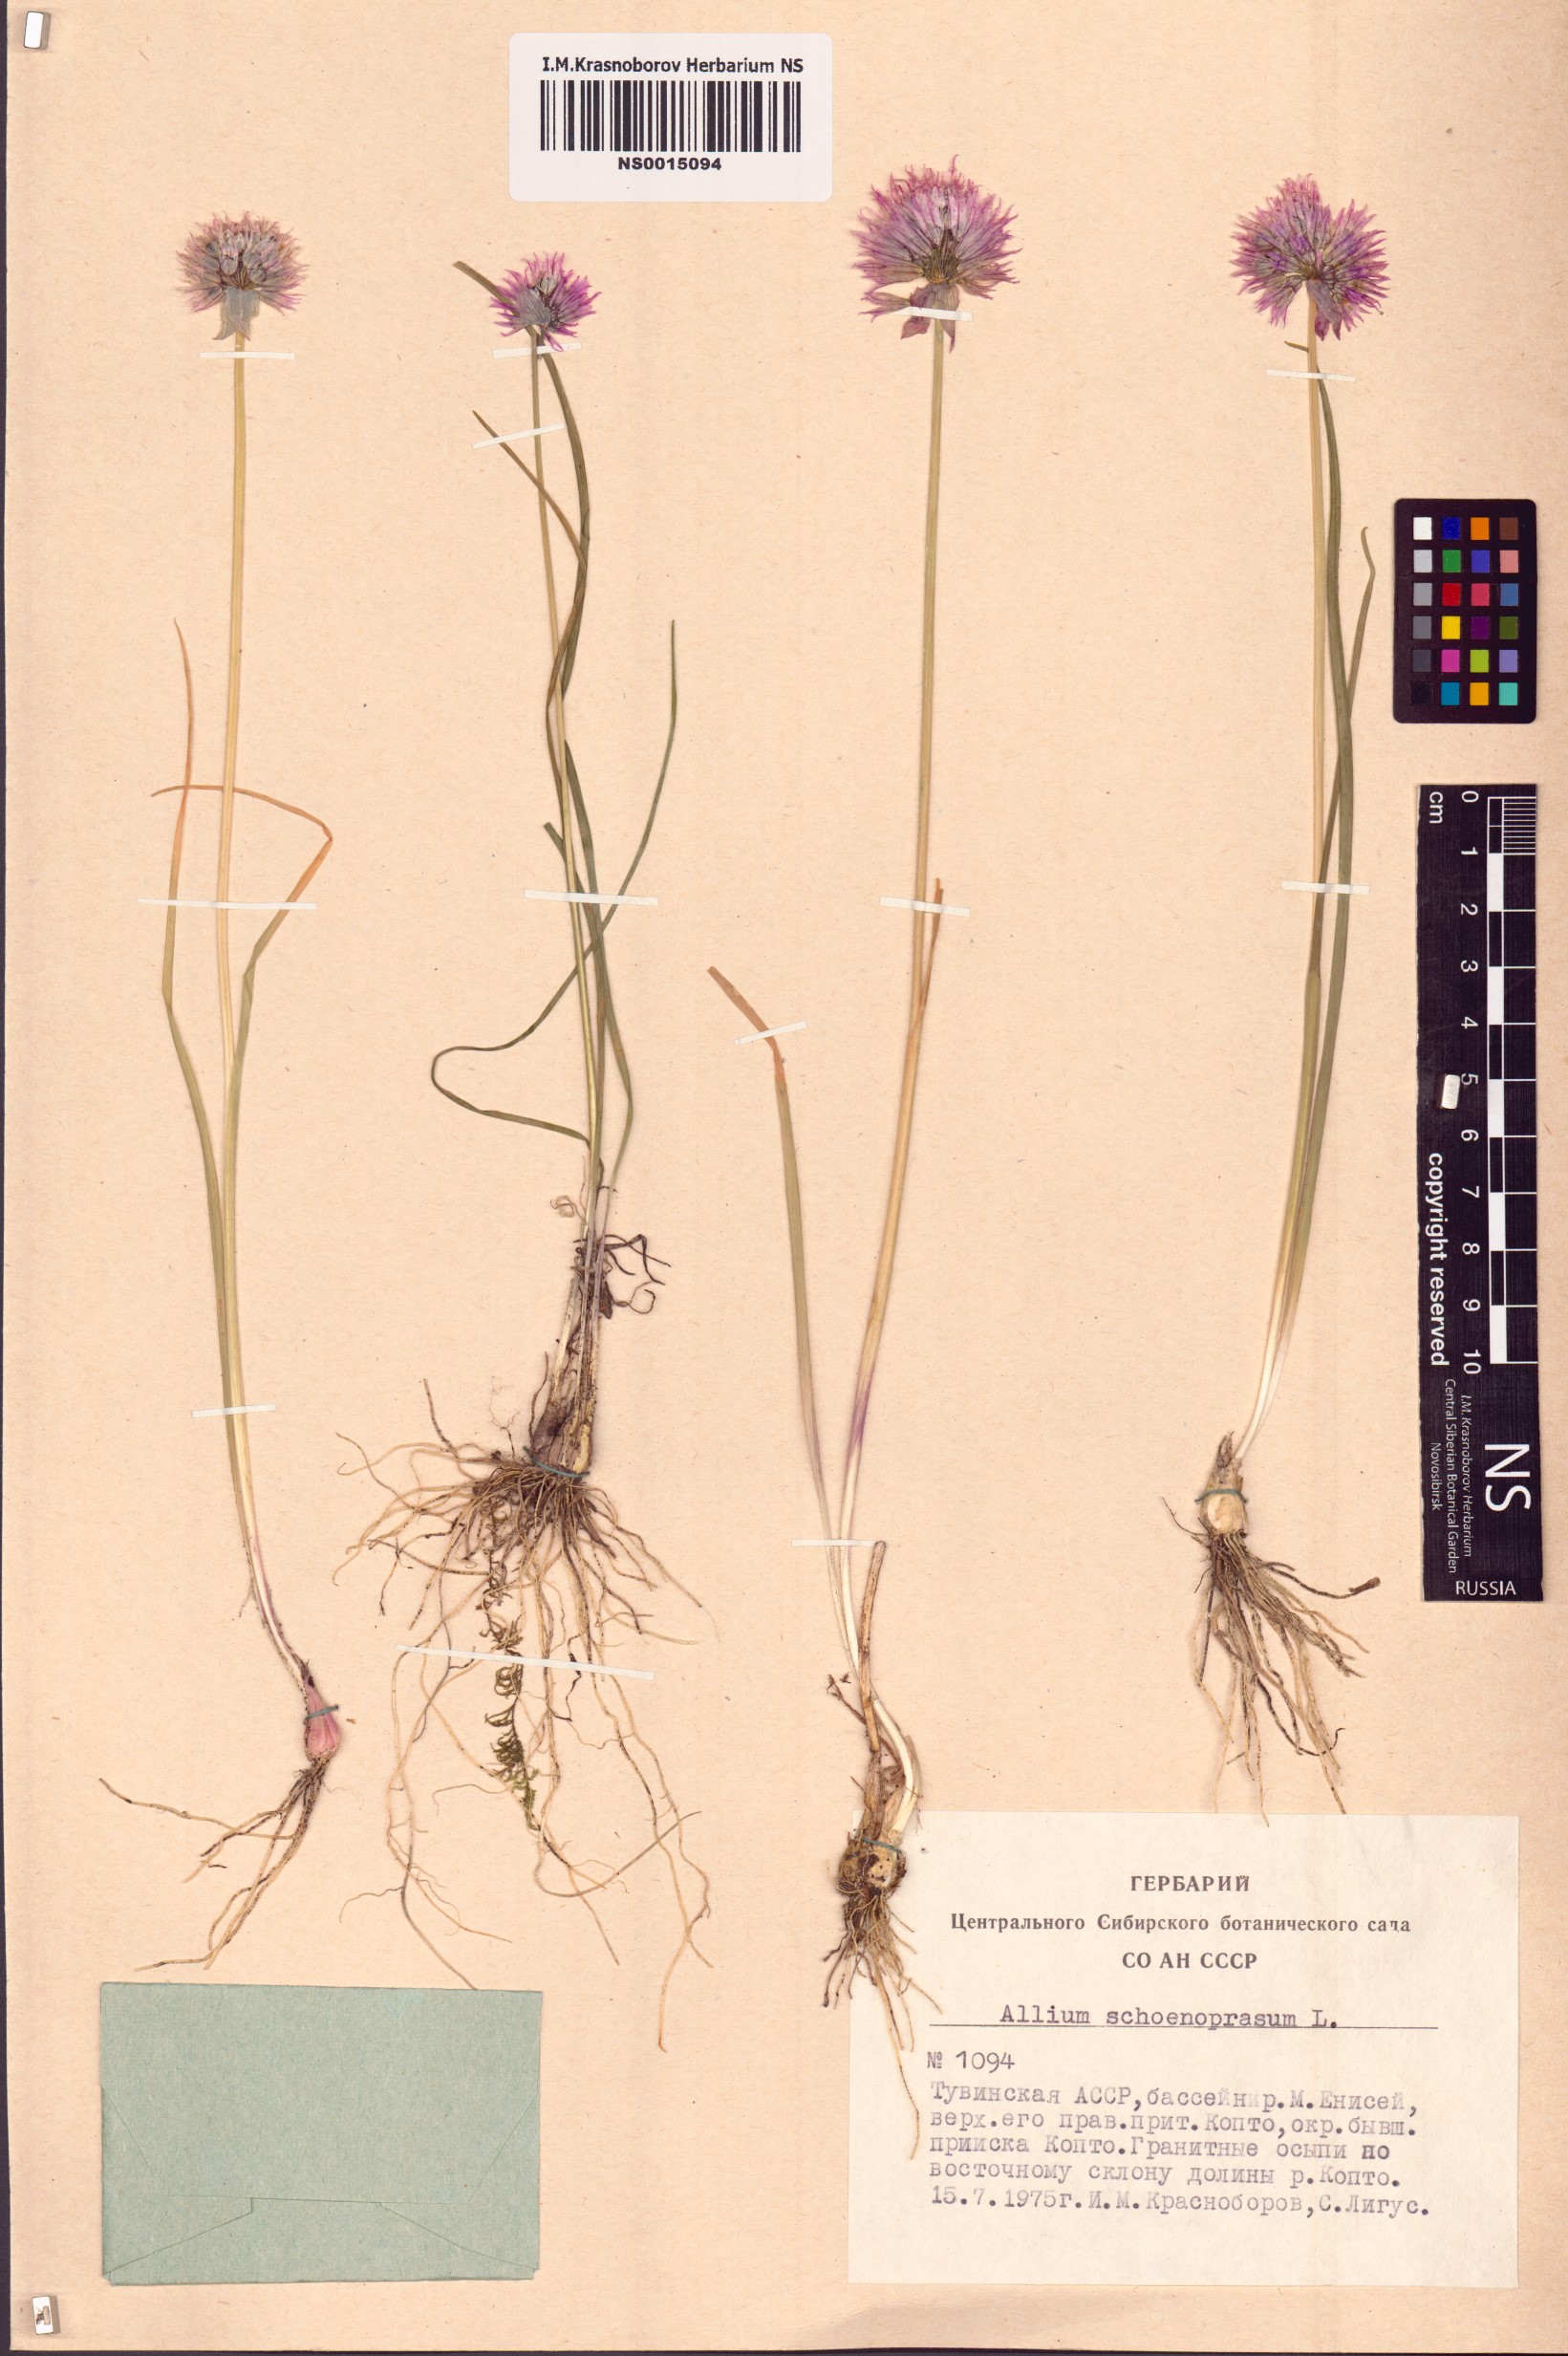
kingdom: Plantae
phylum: Tracheophyta
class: Liliopsida
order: Asparagales
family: Amaryllidaceae
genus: Allium
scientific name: Allium schoenoprasum
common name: Chives
